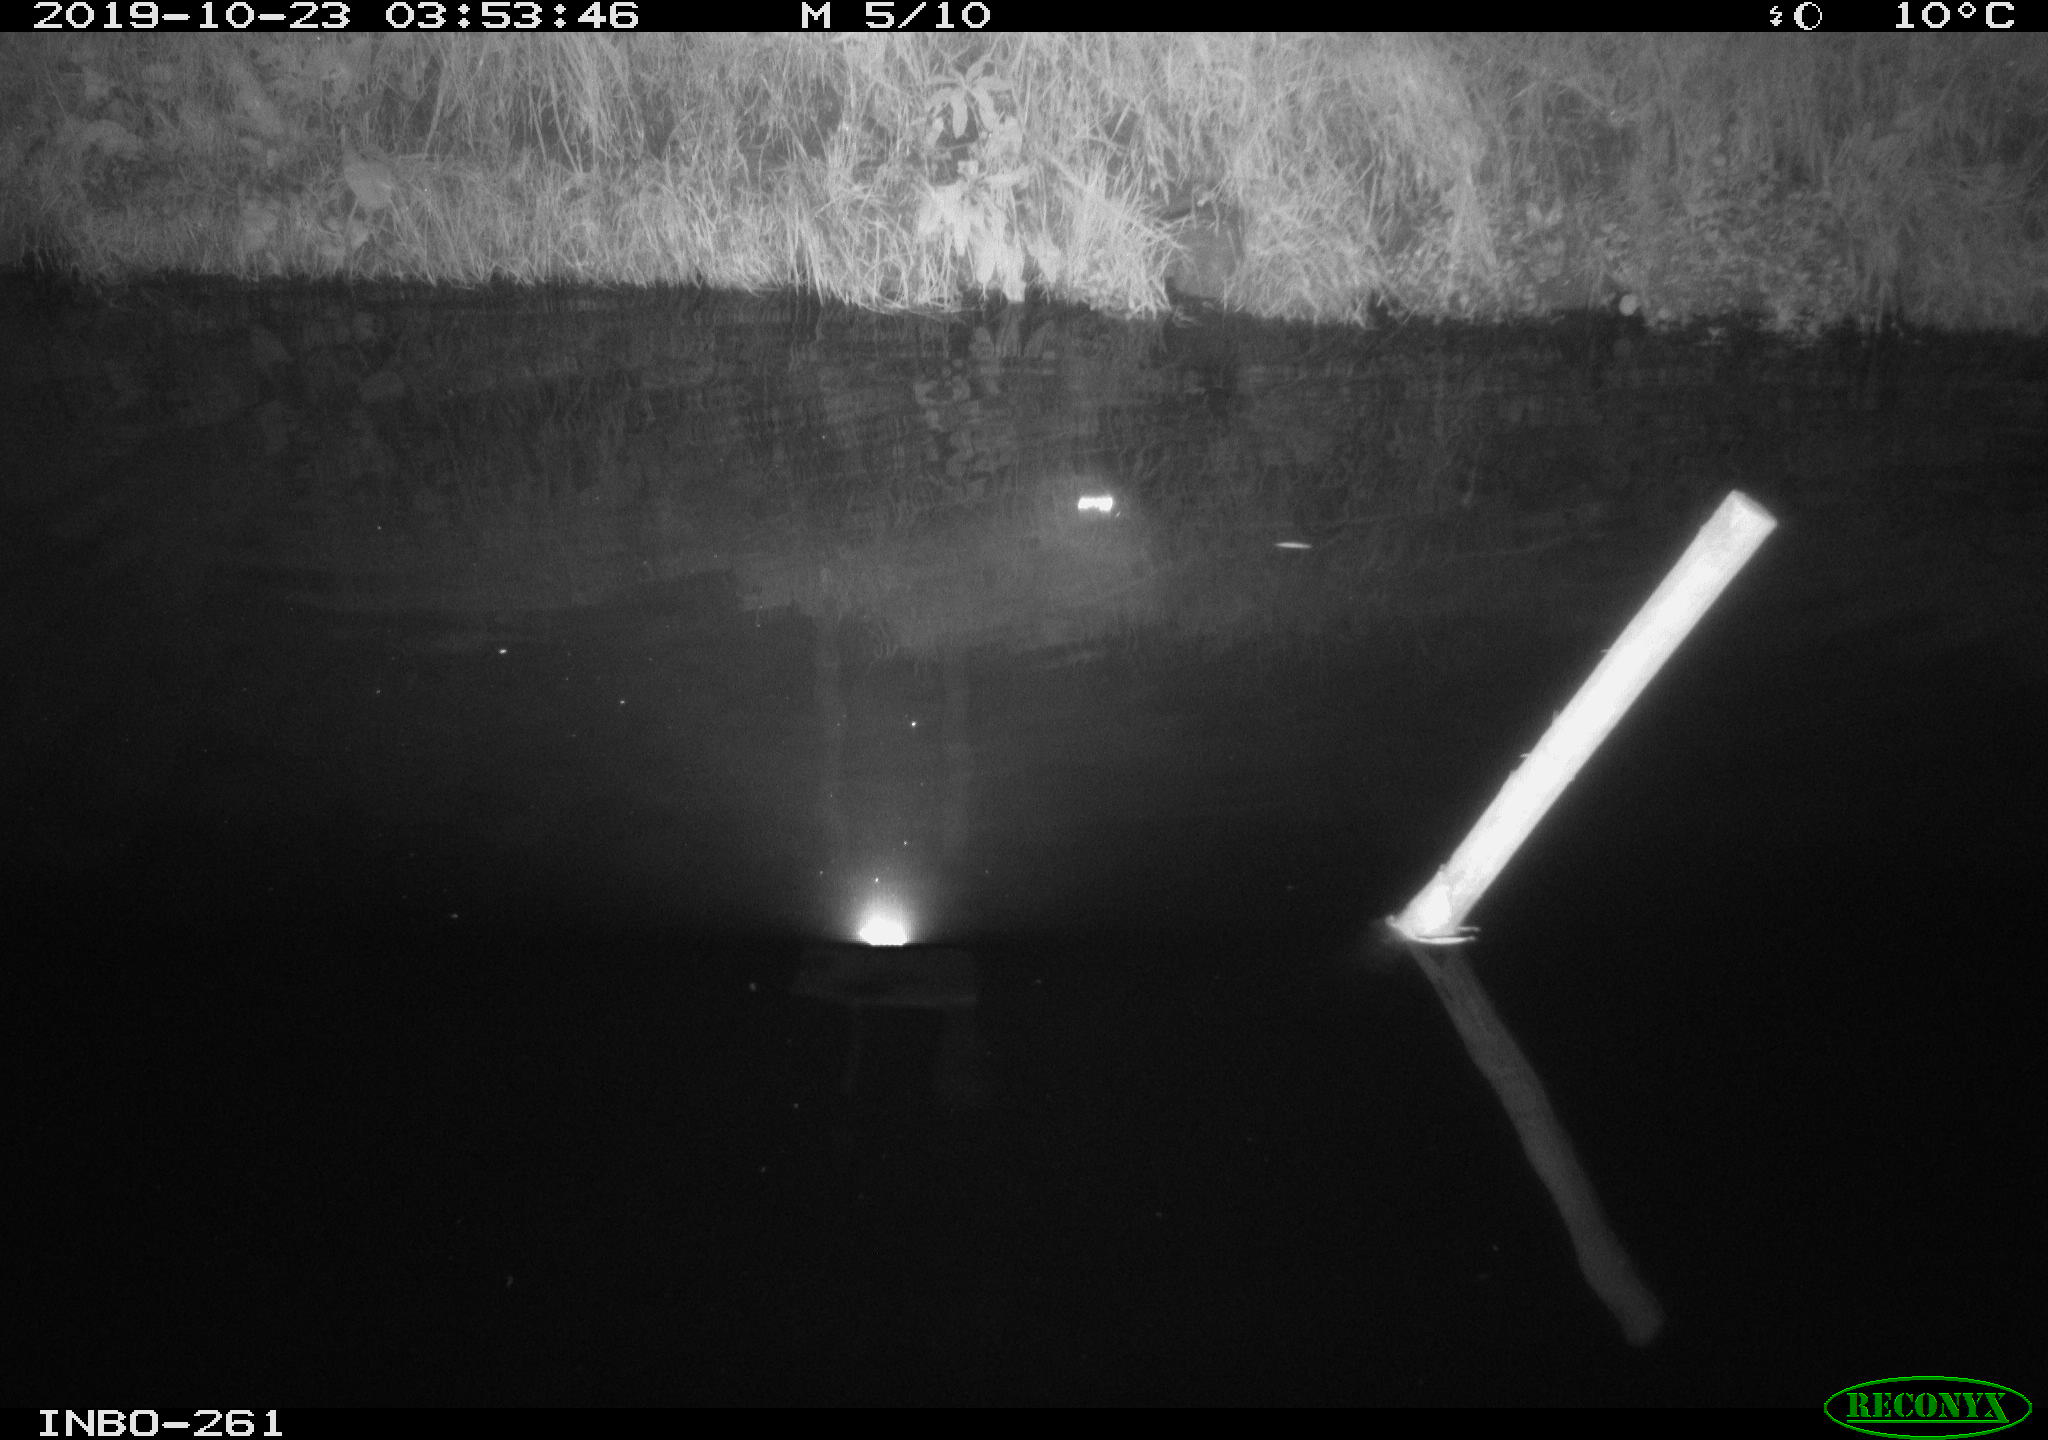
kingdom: Animalia
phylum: Chordata
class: Mammalia
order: Rodentia
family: Muridae
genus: Rattus
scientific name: Rattus norvegicus
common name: Brown rat
